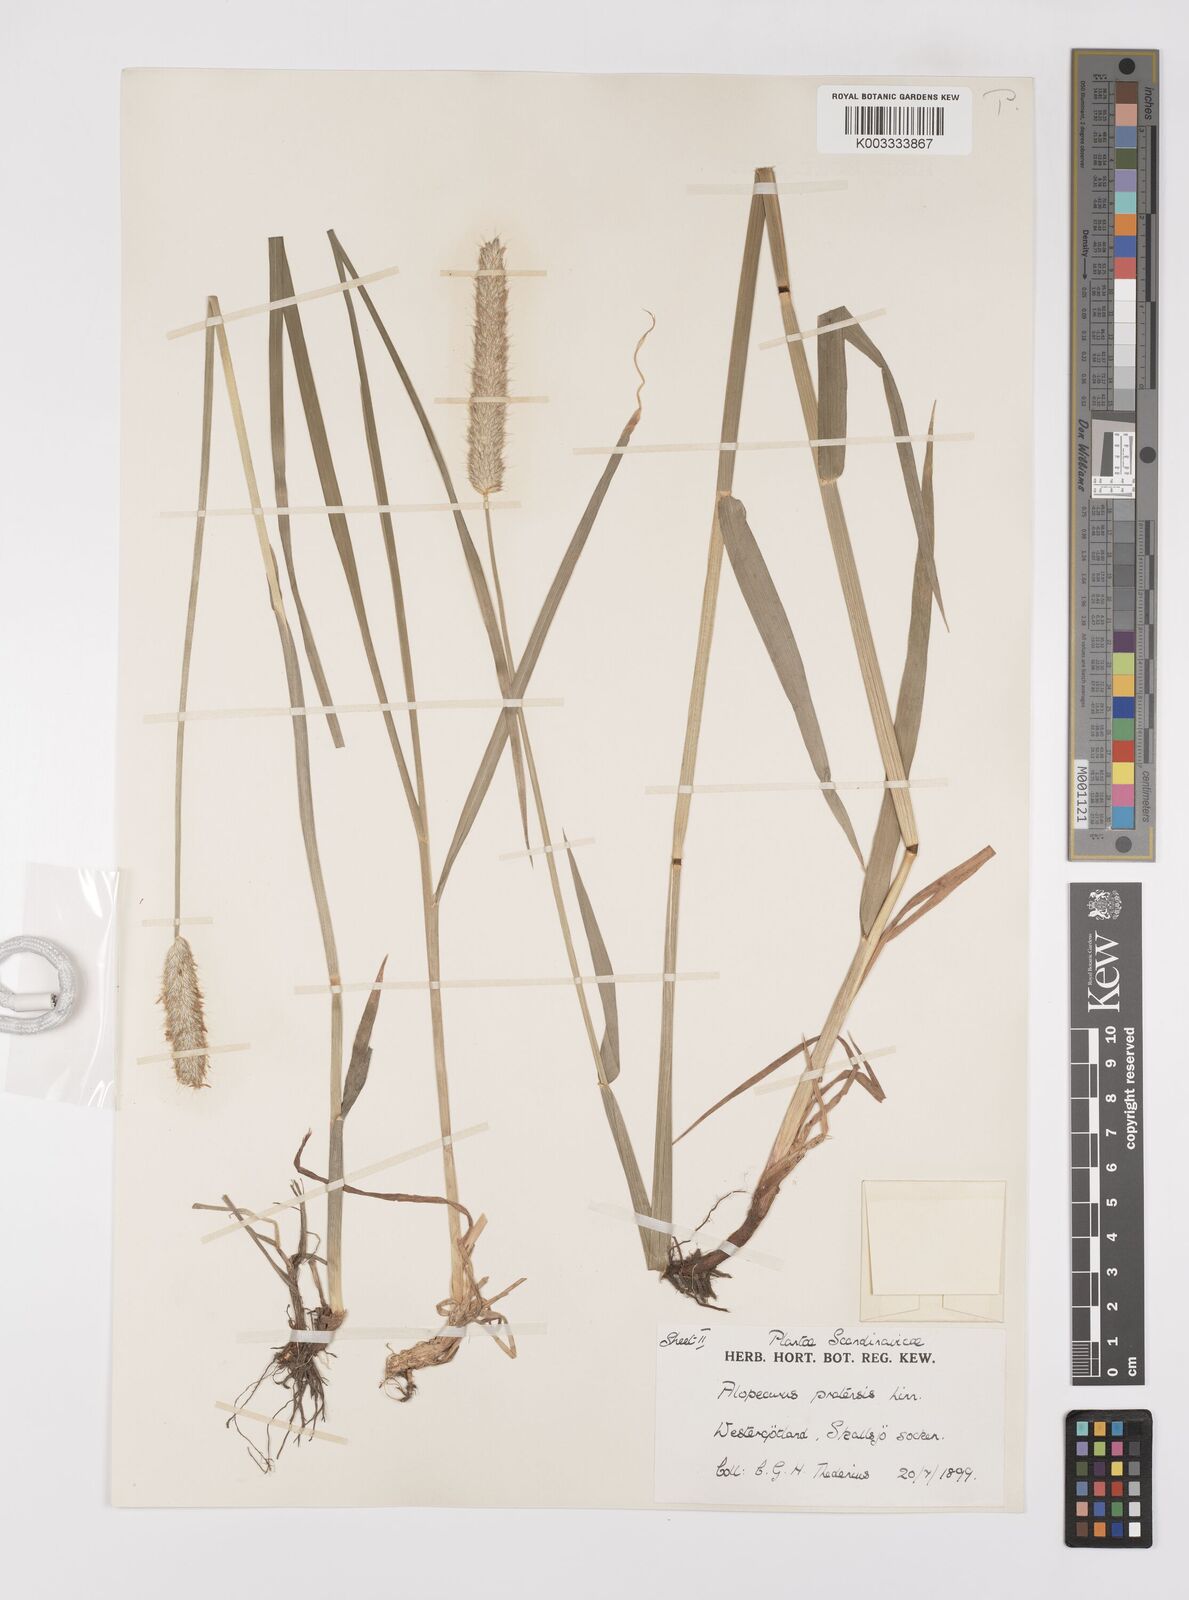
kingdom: Plantae
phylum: Tracheophyta
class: Liliopsida
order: Poales
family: Poaceae
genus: Alopecurus
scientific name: Alopecurus pratensis
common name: Meadow foxtail
